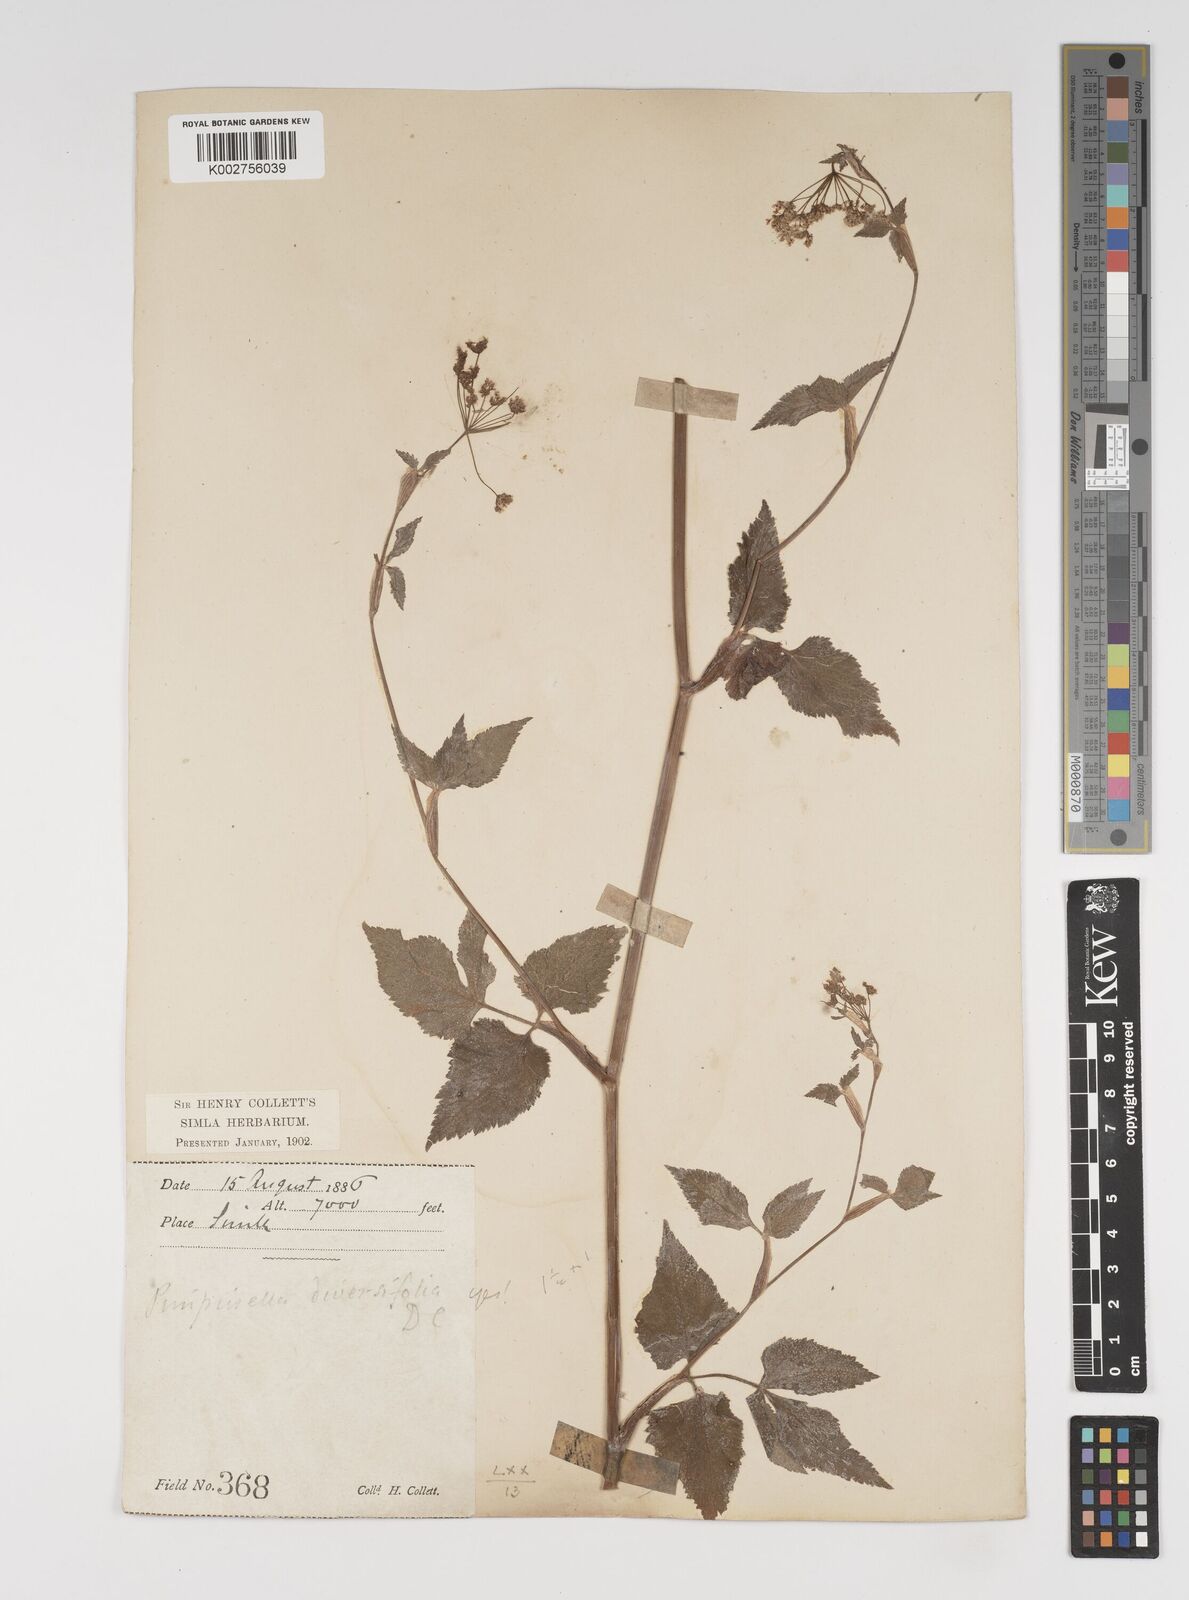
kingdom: Plantae
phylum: Tracheophyta
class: Magnoliopsida
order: Apiales
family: Apiaceae
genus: Pimpinella
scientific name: Pimpinella diversifolia
